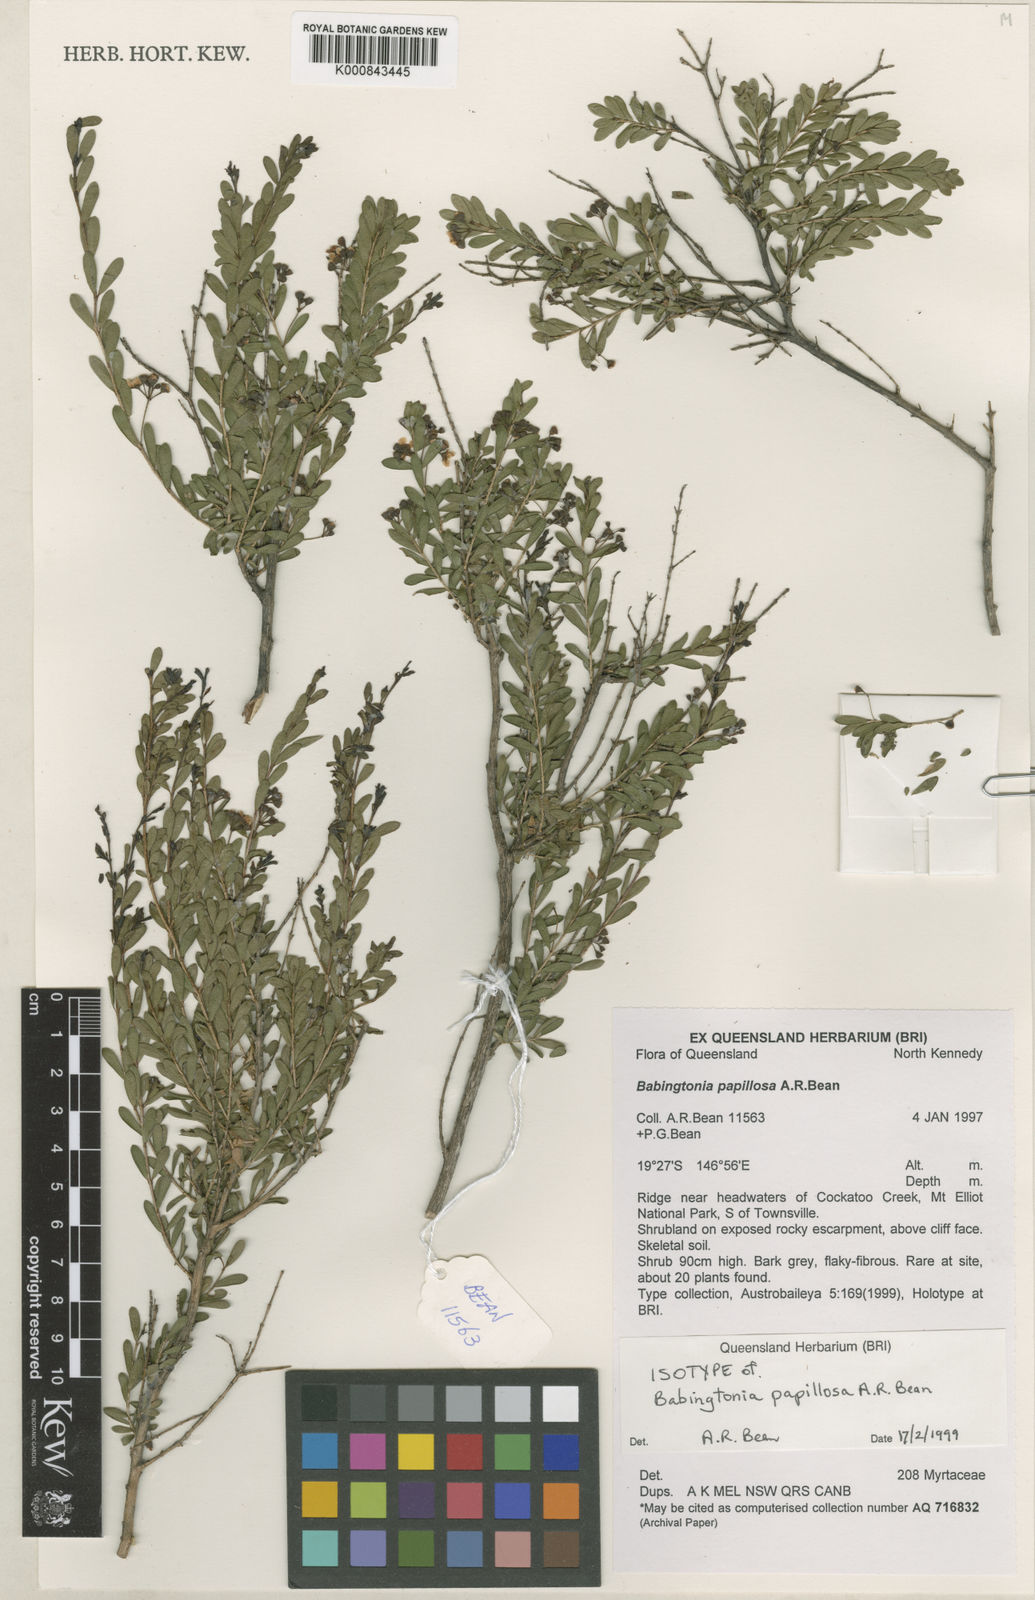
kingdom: Plantae
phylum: Tracheophyta
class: Magnoliopsida
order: Myrtales
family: Myrtaceae
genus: Sannantha
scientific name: Sannantha papillosa
